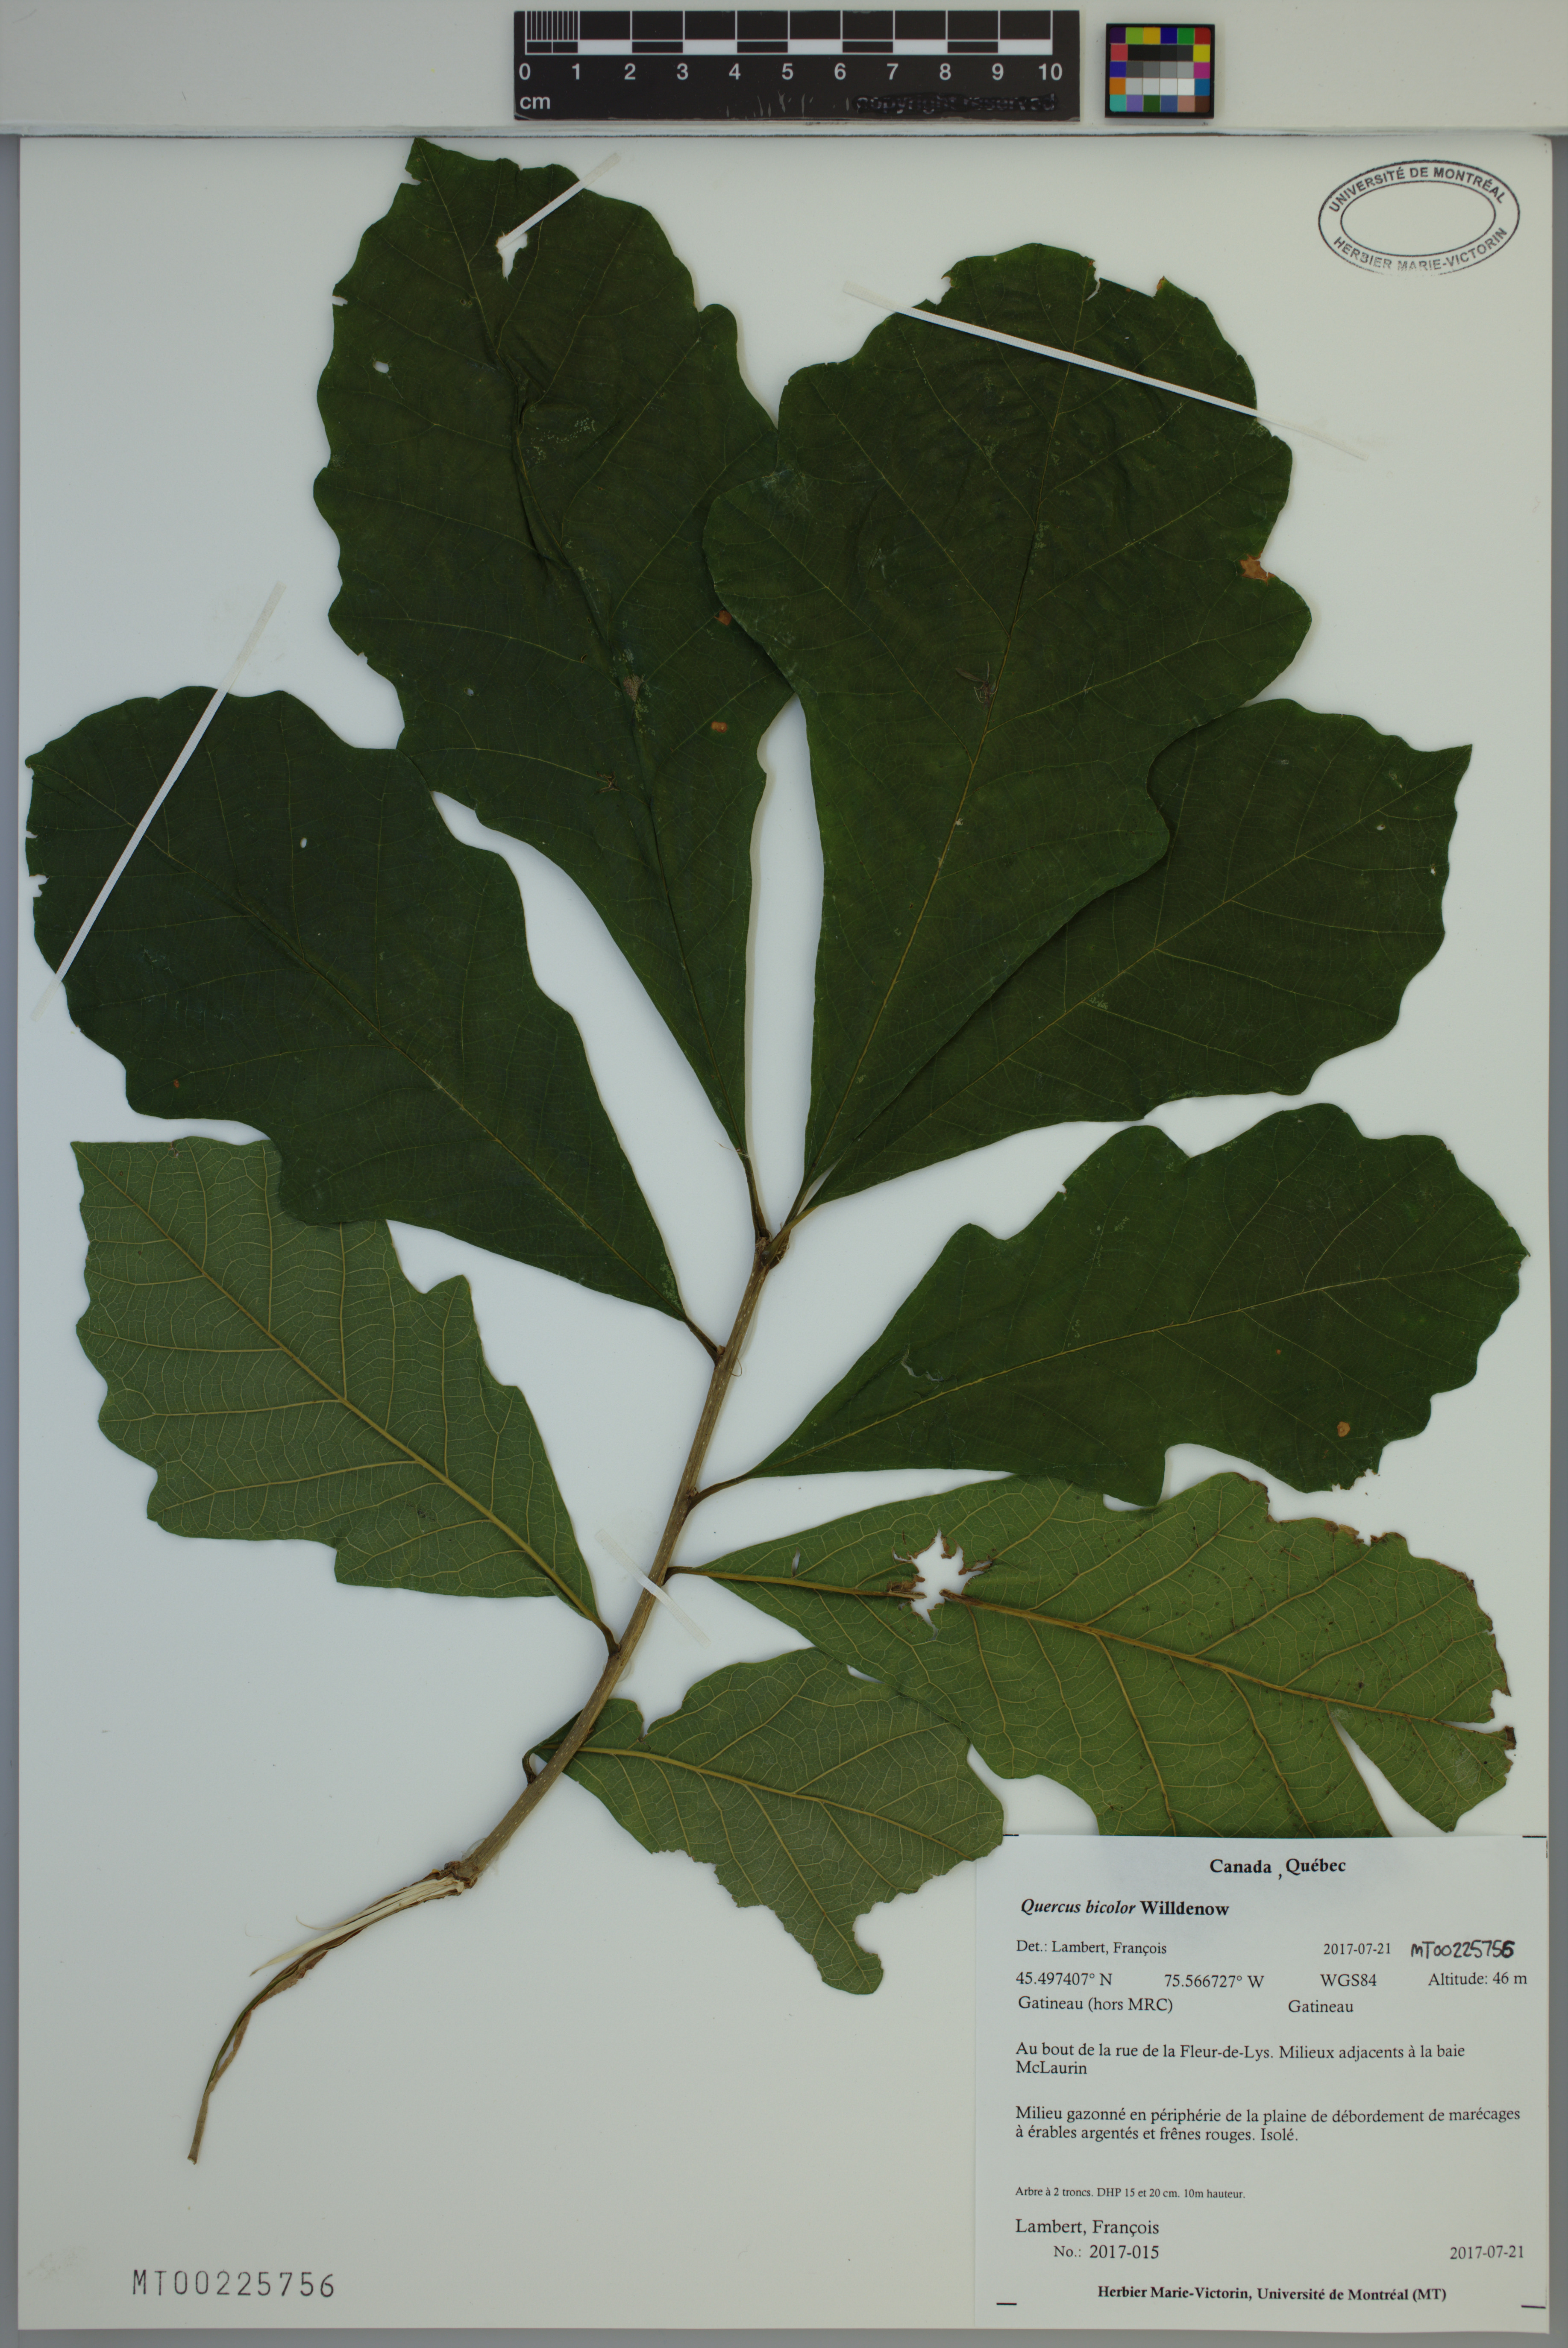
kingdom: Plantae
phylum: Tracheophyta
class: Magnoliopsida
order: Fagales
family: Fagaceae
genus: Quercus
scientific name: Quercus bicolor
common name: Swamp white oak
